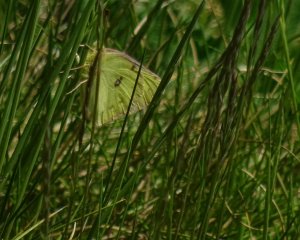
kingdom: Animalia
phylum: Arthropoda
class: Insecta
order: Lepidoptera
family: Pieridae
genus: Colias
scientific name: Colias philodice
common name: Clouded Sulphur
